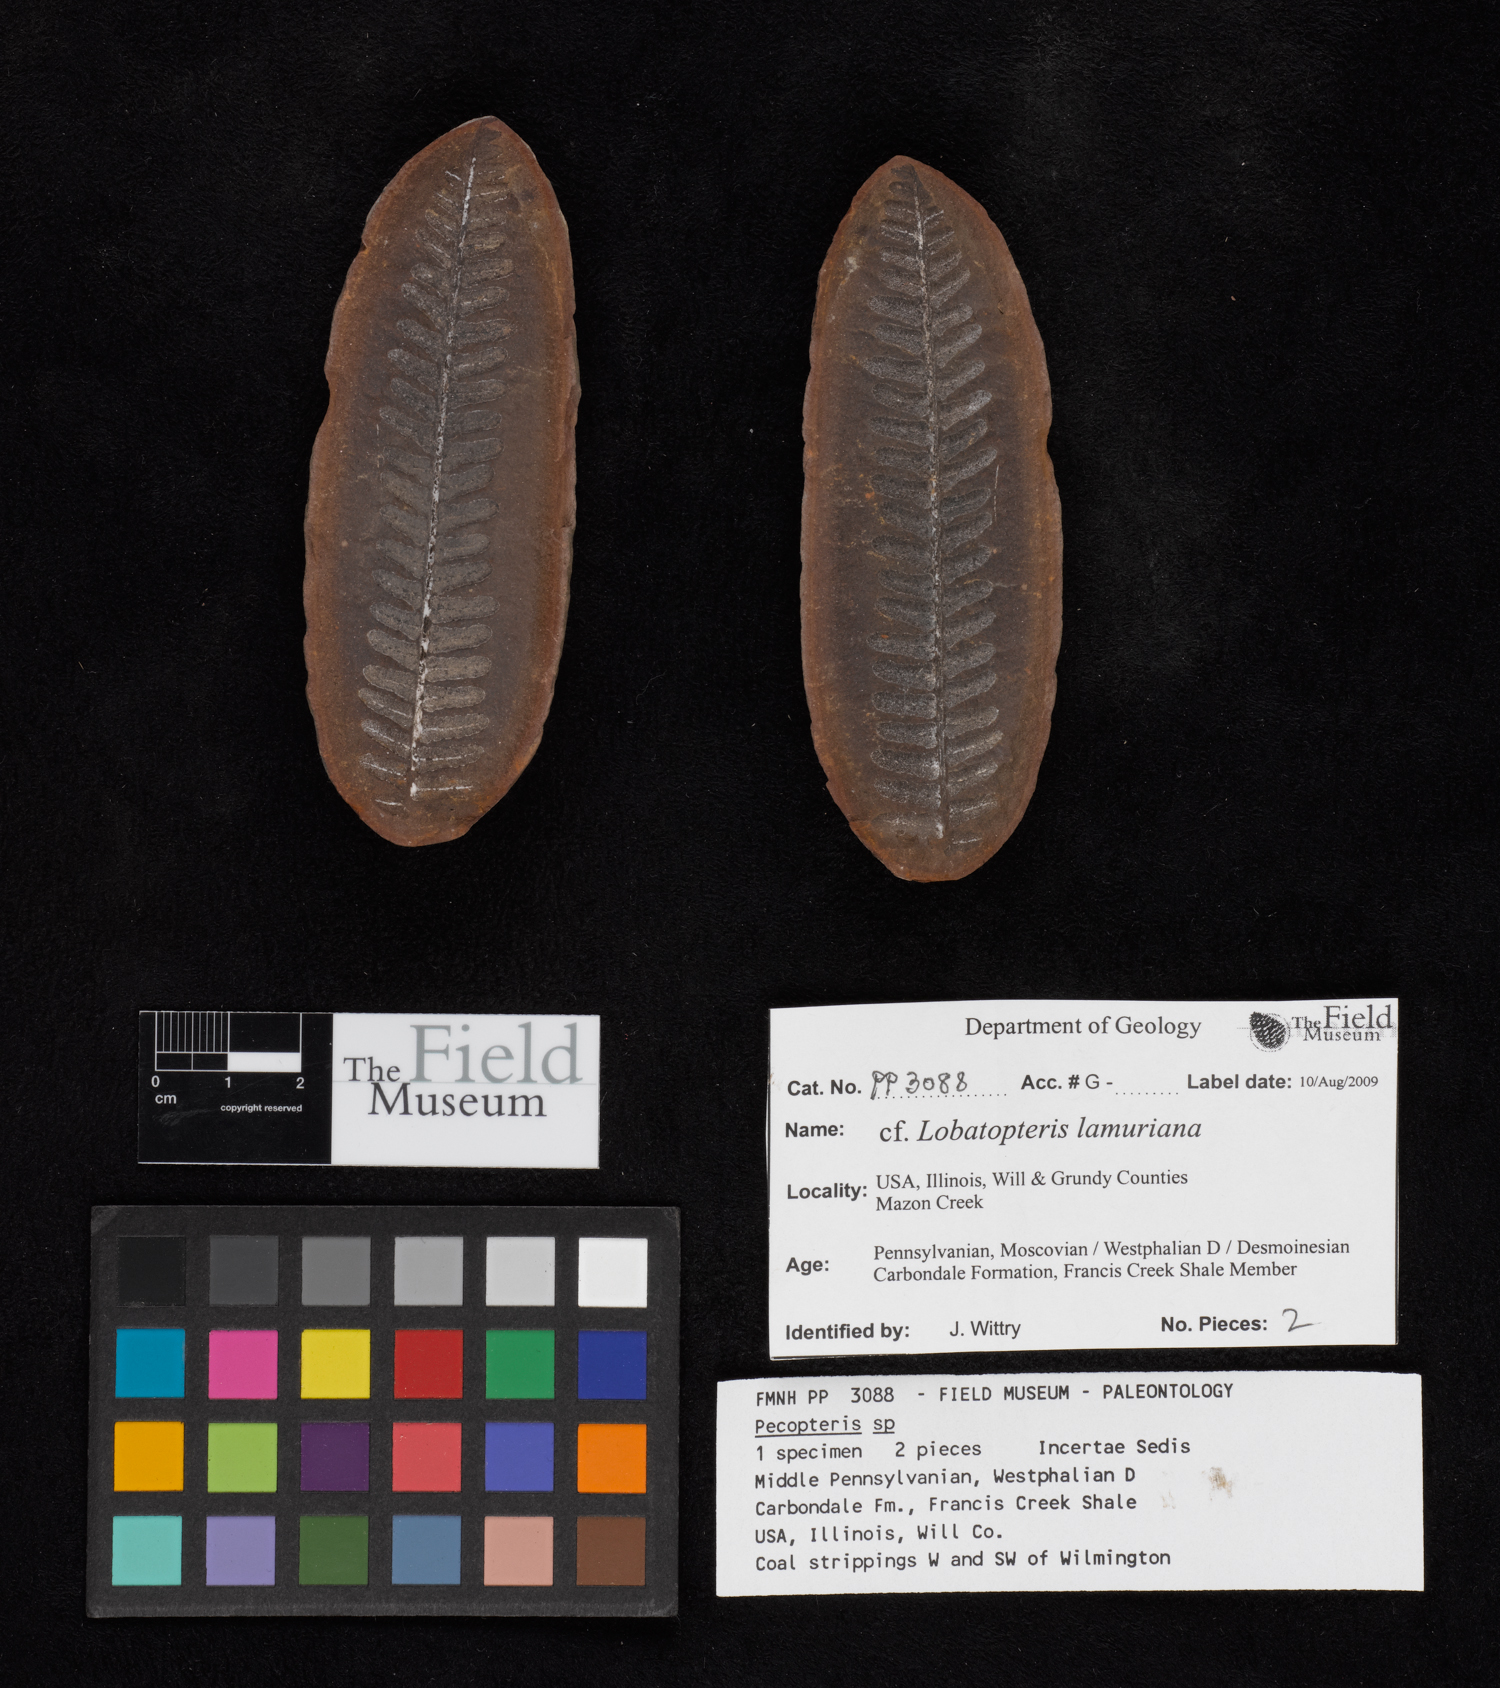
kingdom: Plantae
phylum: Tracheophyta
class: Polypodiopsida
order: Marattiales
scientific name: Marattiales
